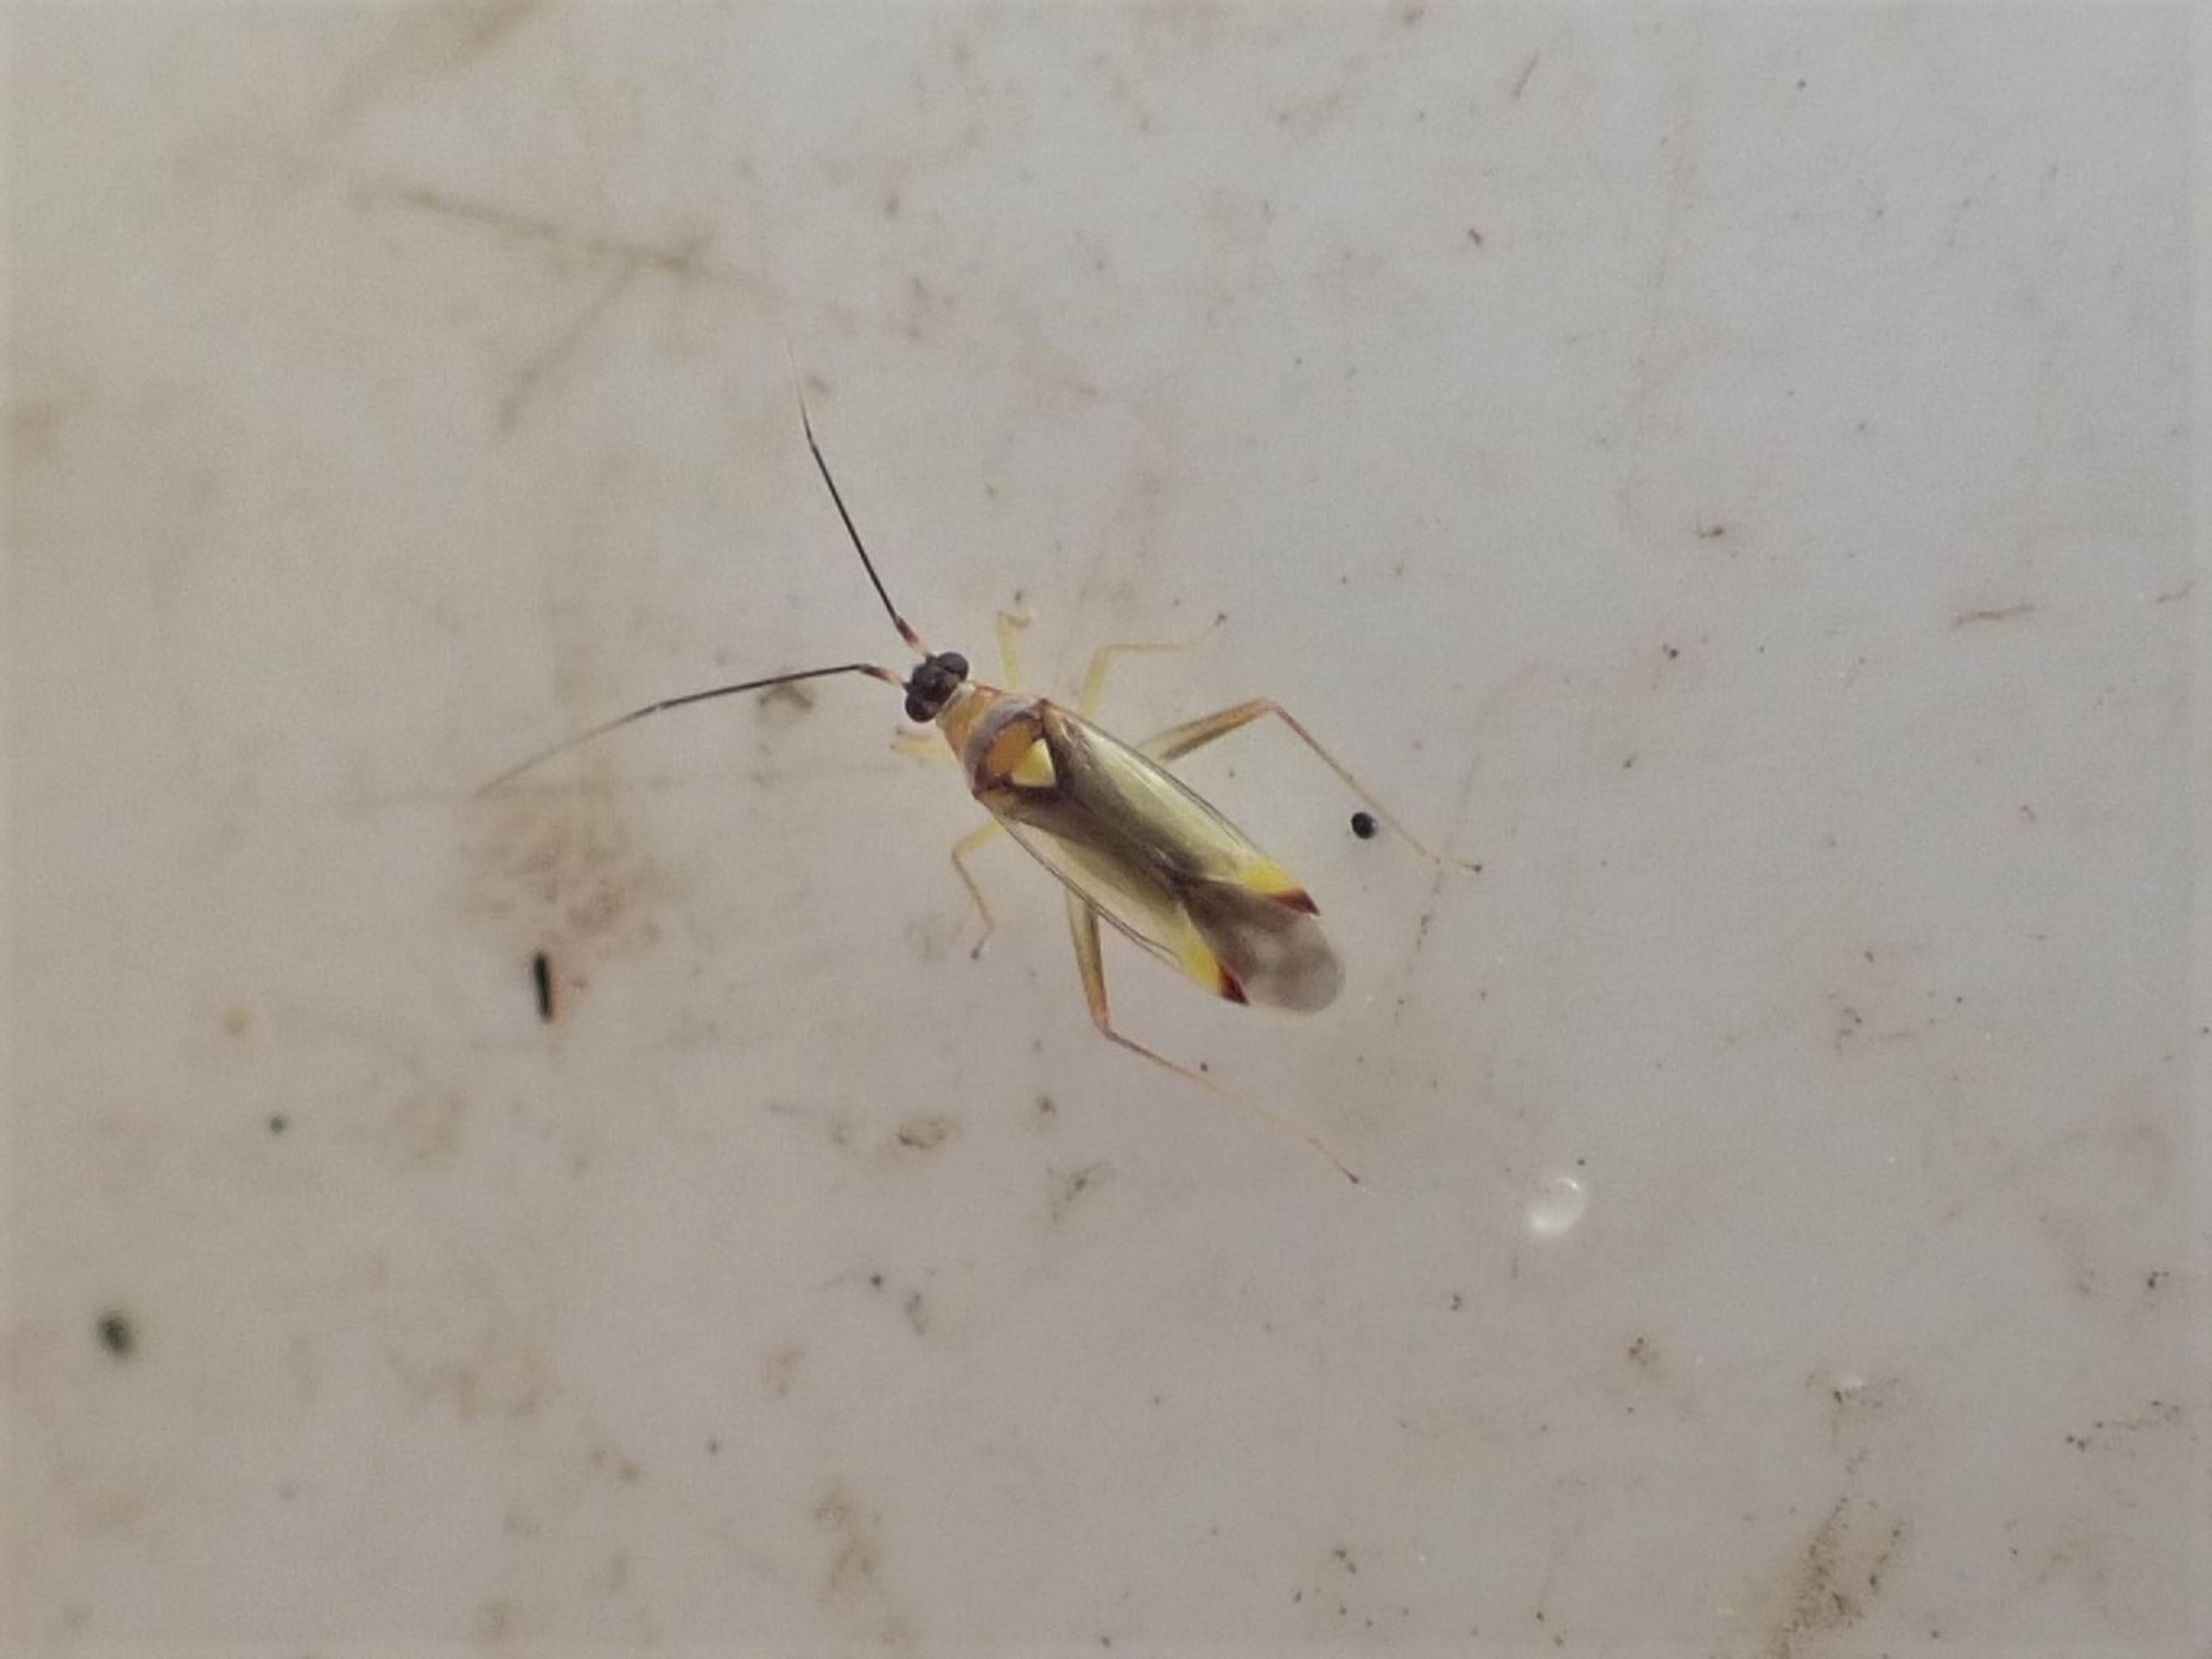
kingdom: Animalia
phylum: Arthropoda
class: Insecta
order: Hemiptera
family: Miridae
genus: Campyloneura
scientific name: Campyloneura virgula
